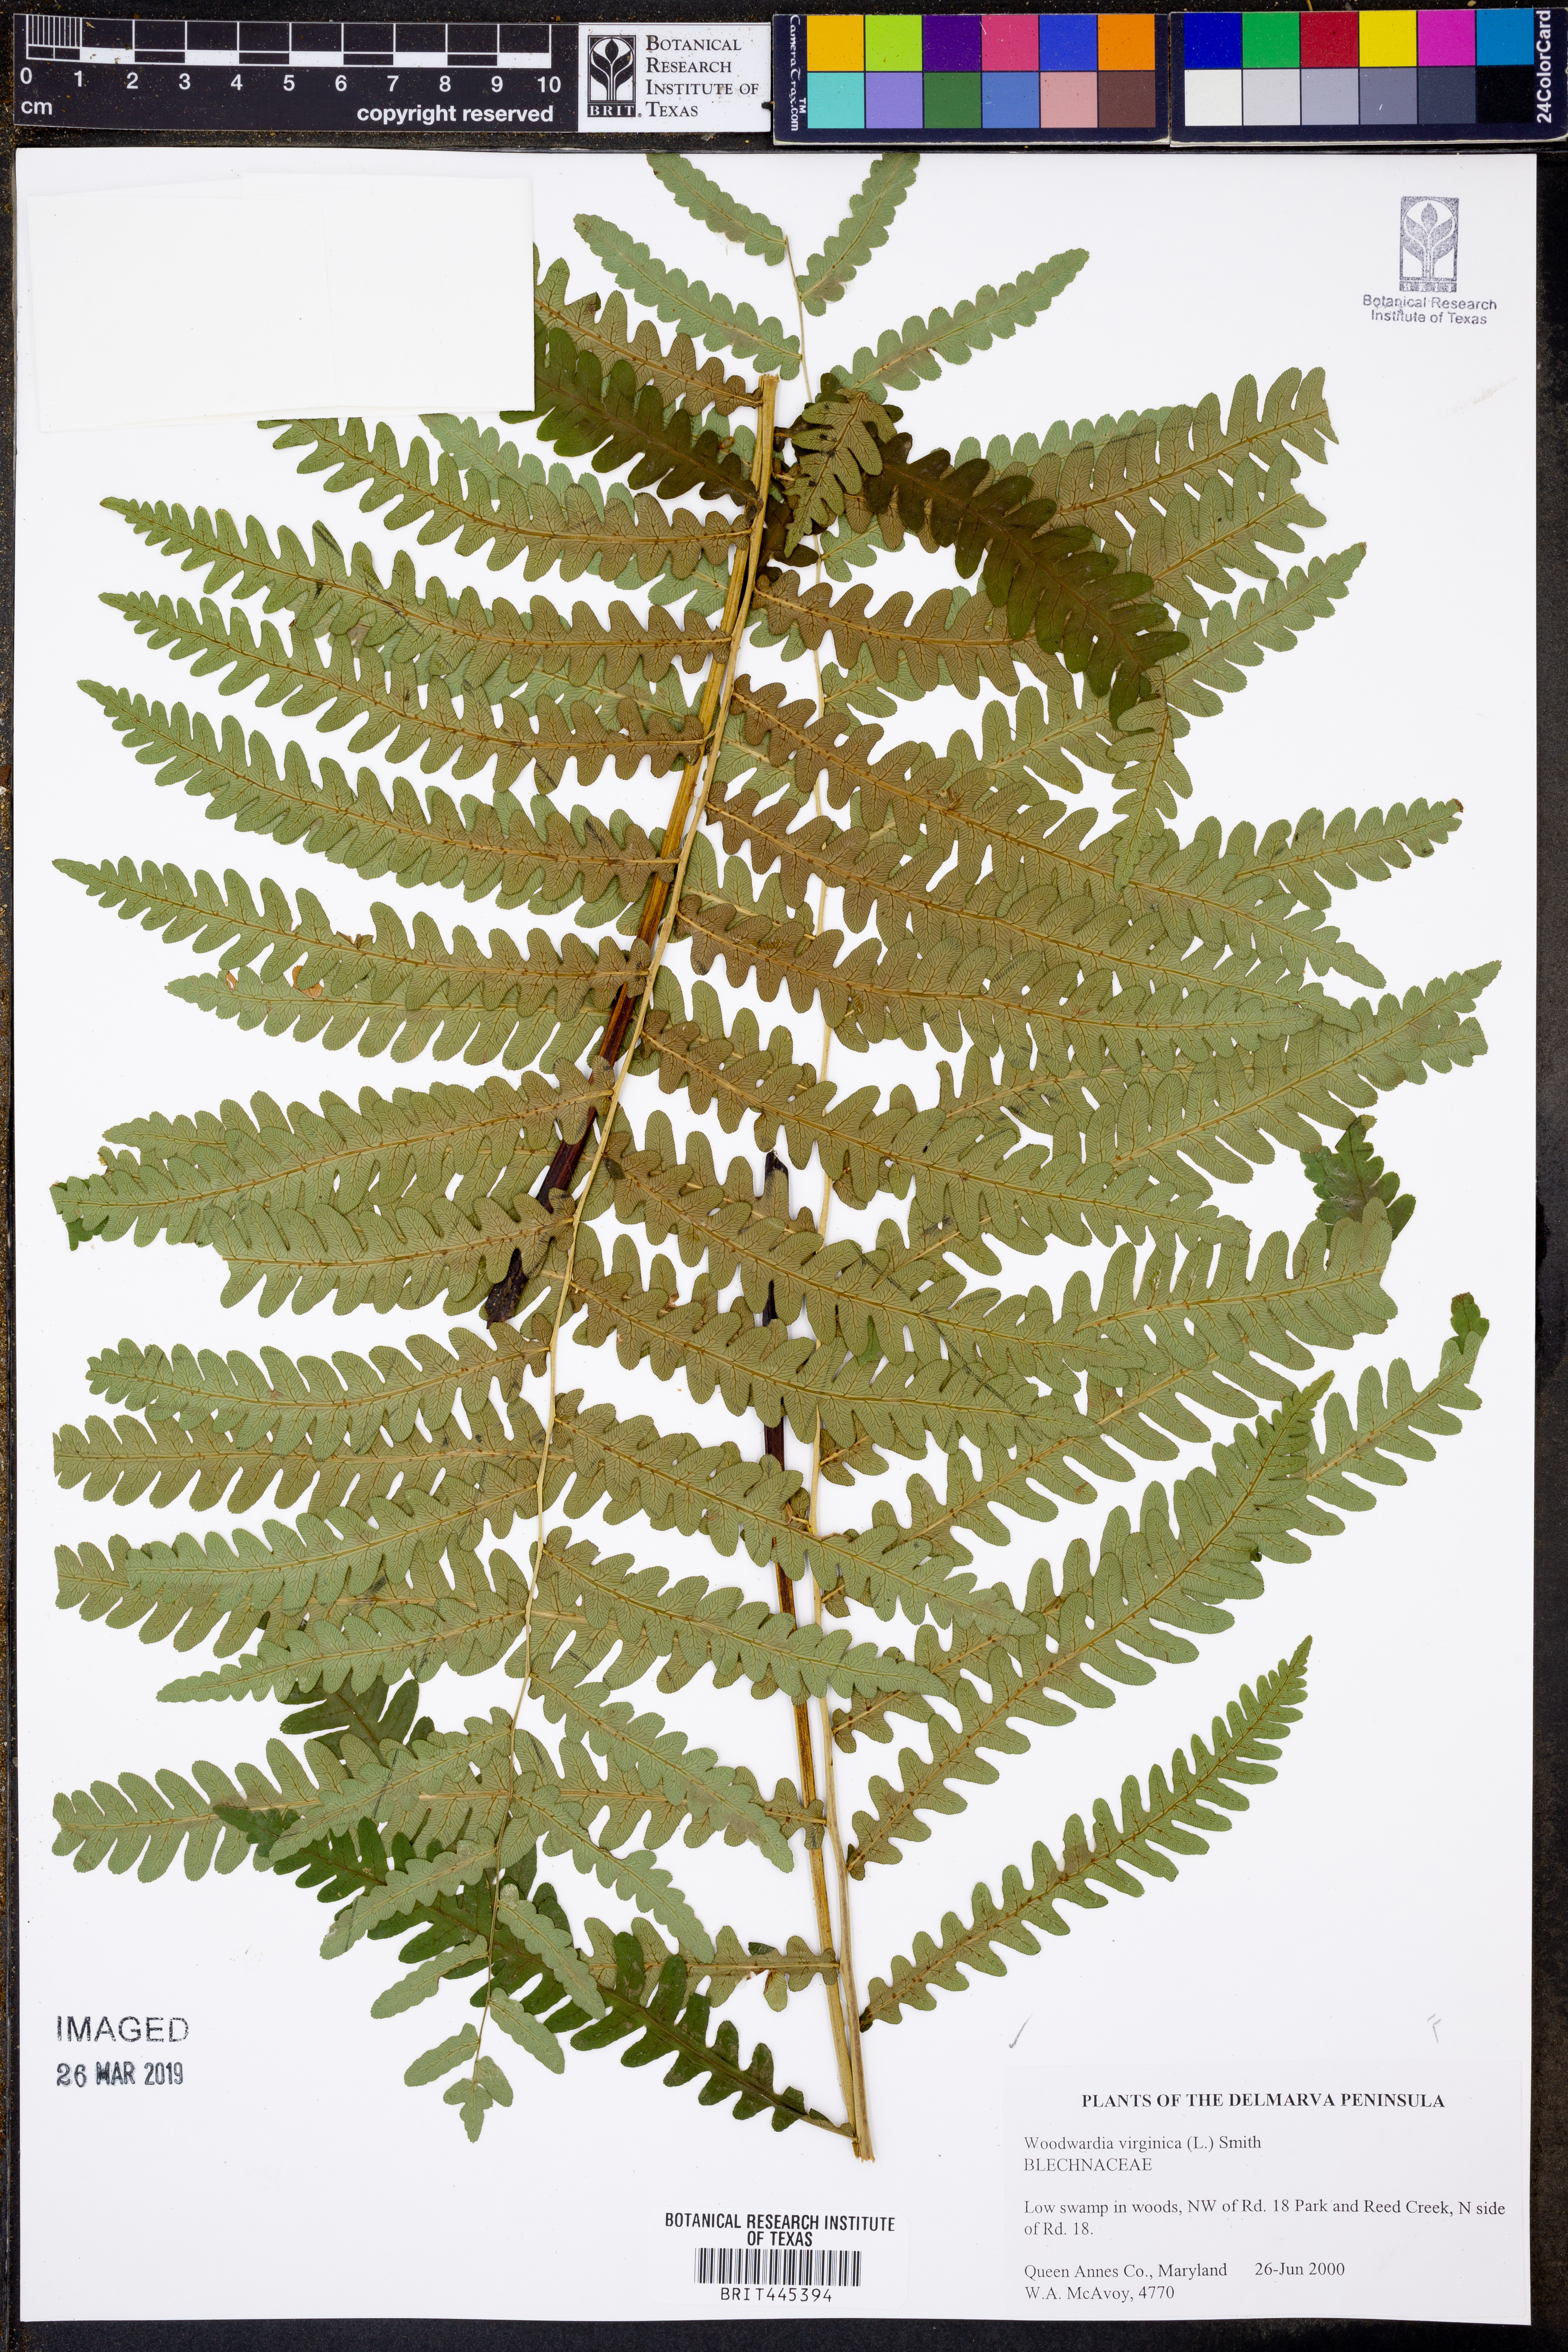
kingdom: Plantae
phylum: Tracheophyta
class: Polypodiopsida
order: Polypodiales
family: Blechnaceae
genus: Anchistea
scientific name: Anchistea virginica
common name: Virginia chain fern
